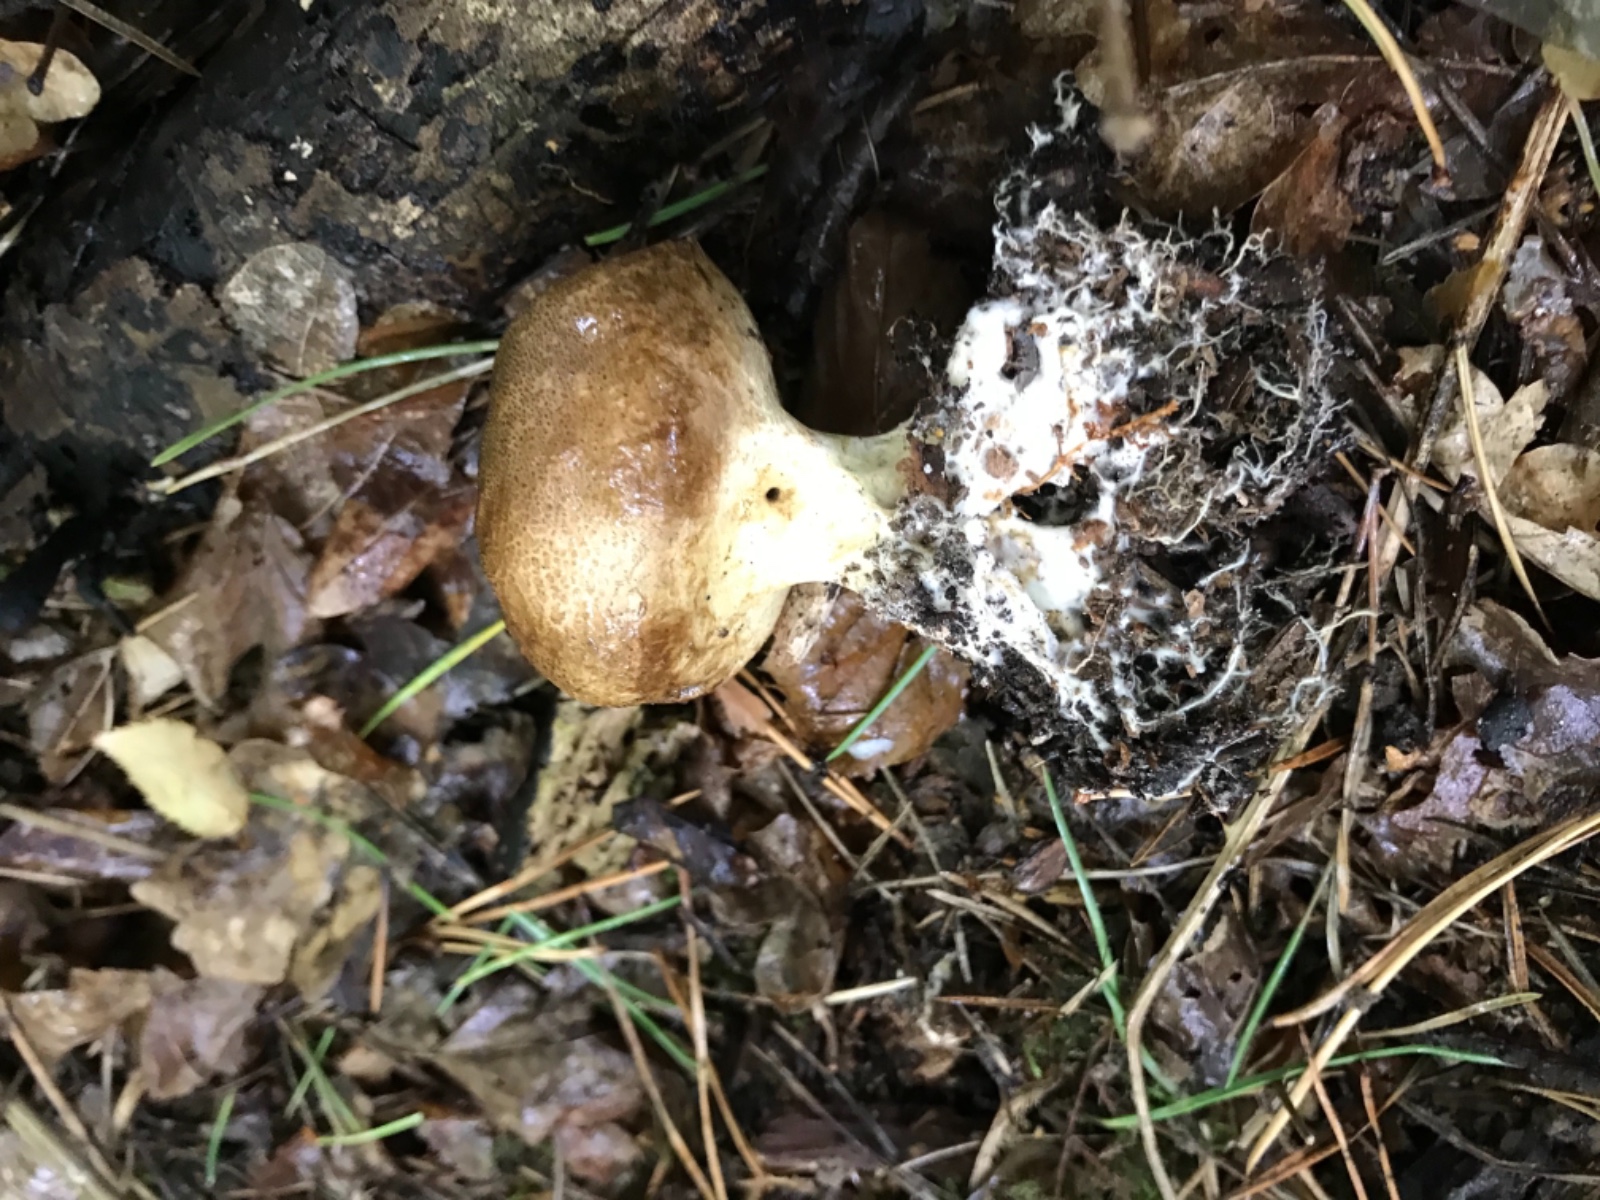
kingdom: Fungi
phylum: Basidiomycota
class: Agaricomycetes
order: Boletales
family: Sclerodermataceae
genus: Scleroderma
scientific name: Scleroderma verrucosum
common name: stilket bruskbold
